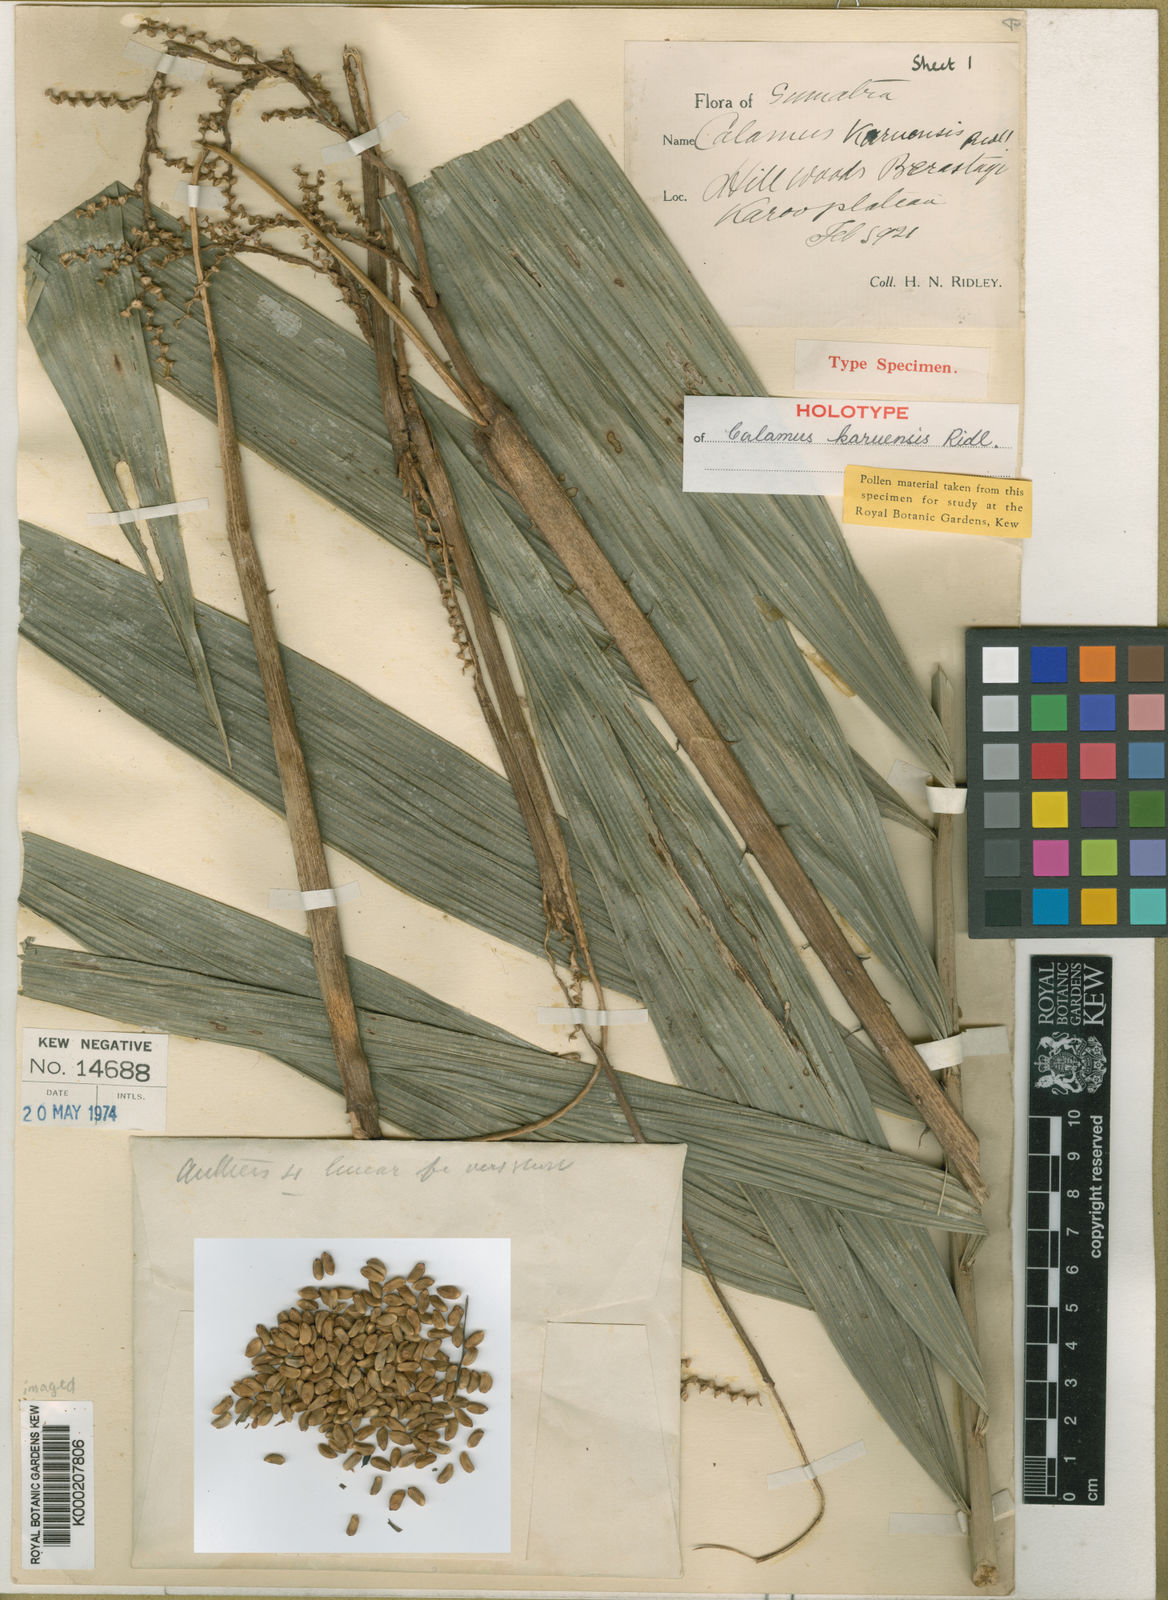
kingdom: Plantae
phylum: Tracheophyta
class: Liliopsida
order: Arecales
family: Arecaceae
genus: Calamus
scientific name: Calamus karuensis
